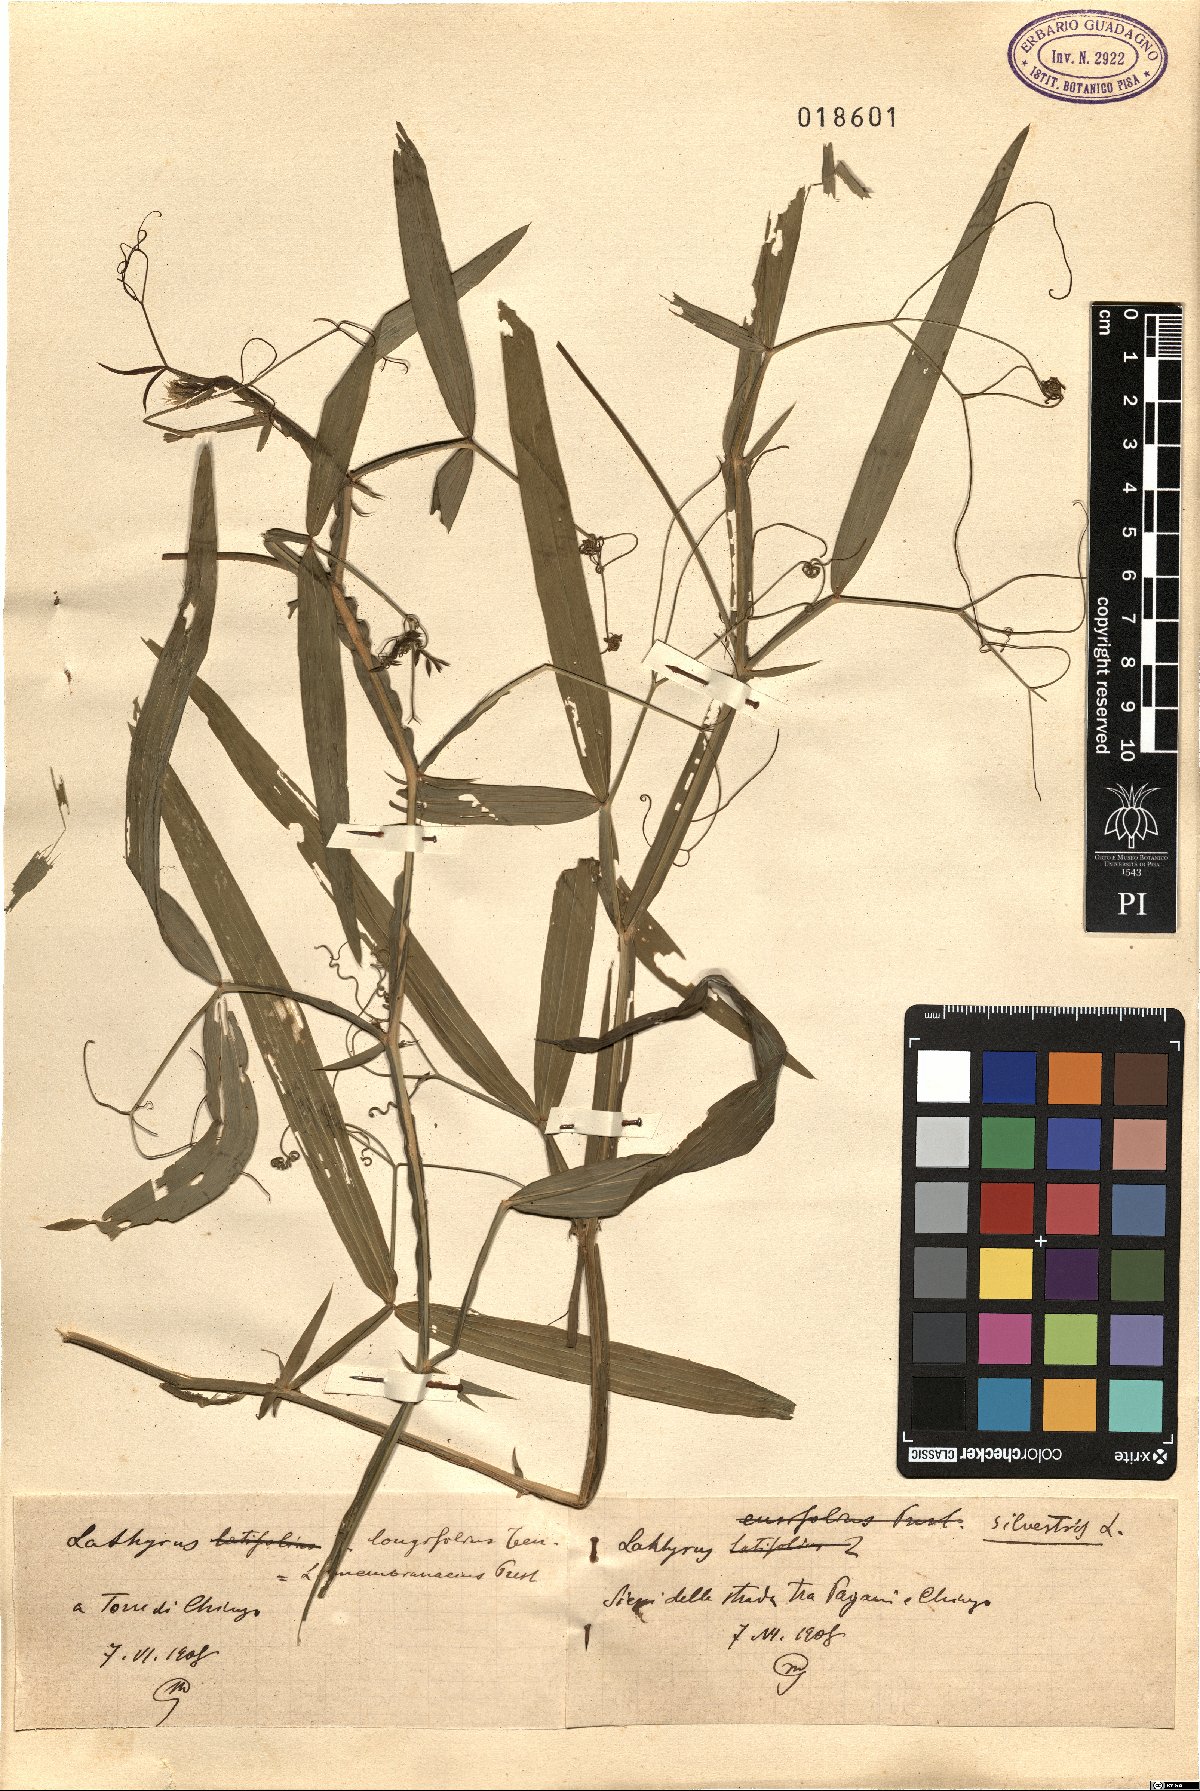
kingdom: Plantae
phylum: Tracheophyta
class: Magnoliopsida
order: Fabales
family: Fabaceae
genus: Lathyrus
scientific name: Lathyrus sylvestris
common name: Flat pea
